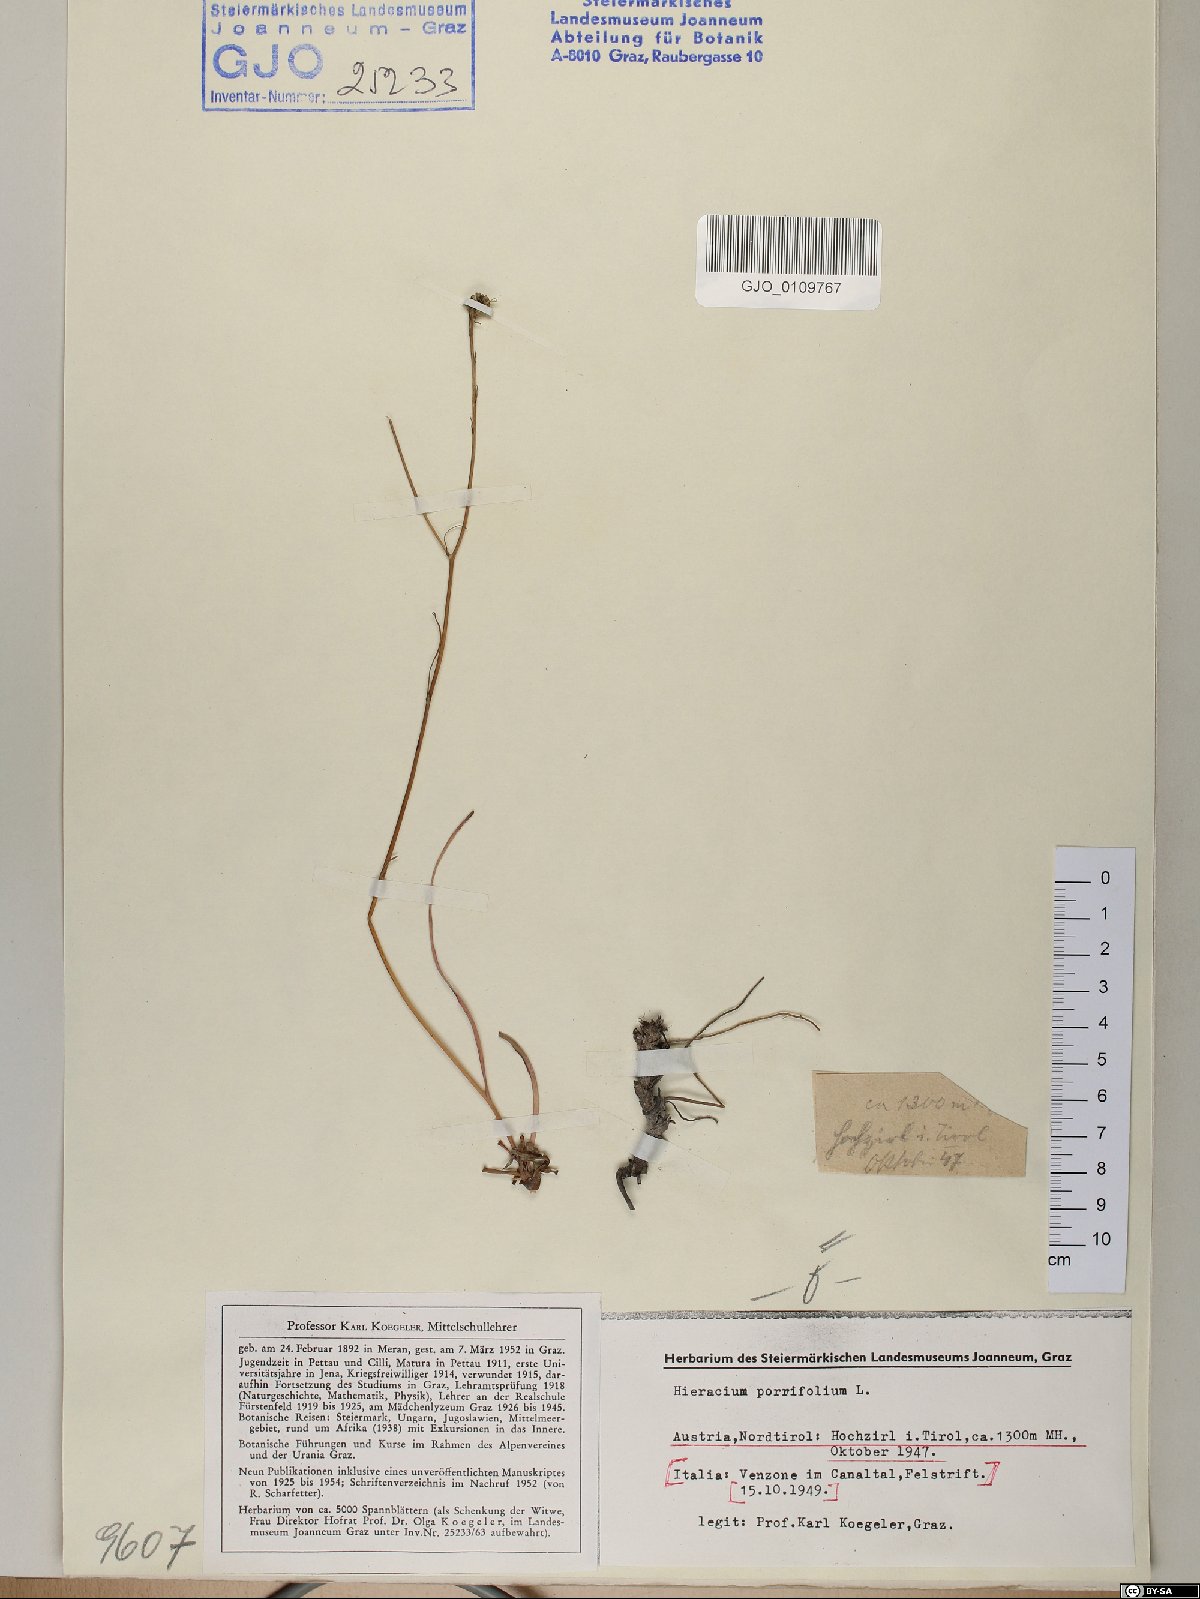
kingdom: Plantae
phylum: Tracheophyta
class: Magnoliopsida
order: Asterales
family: Asteraceae
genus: Hieracium
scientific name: Hieracium porrifolium
